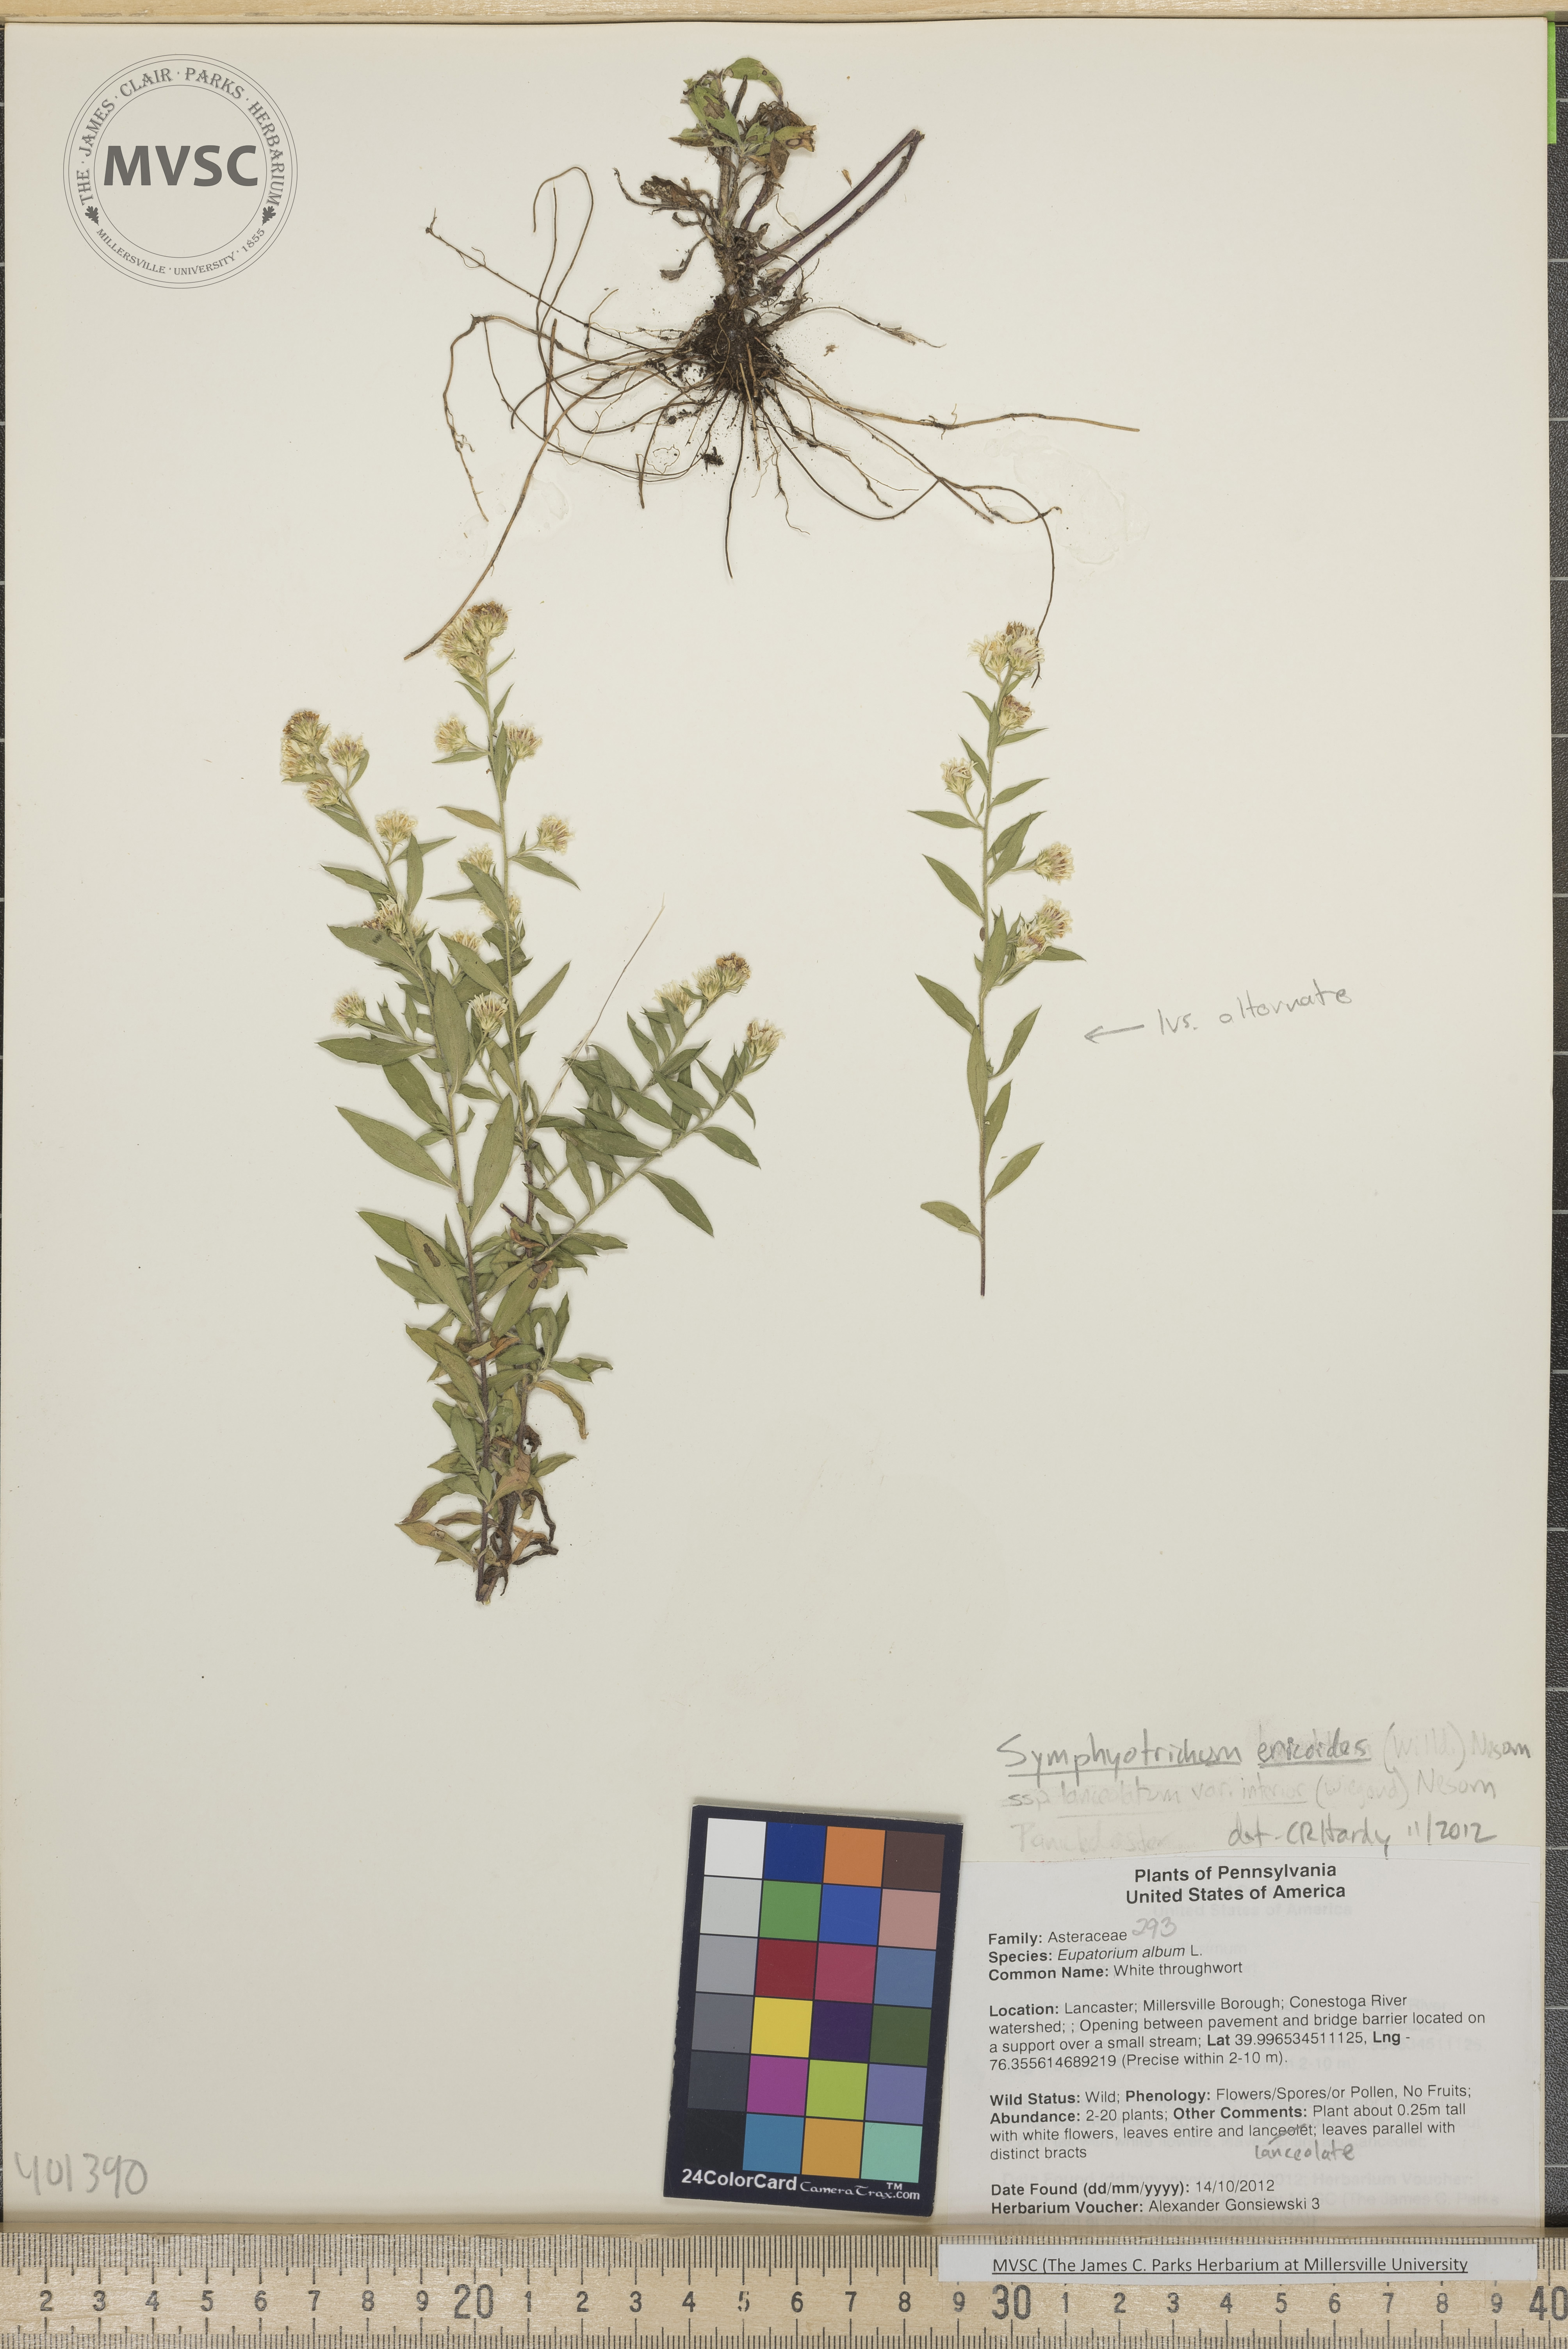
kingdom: Plantae
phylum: Tracheophyta
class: Magnoliopsida
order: Asterales
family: Asteraceae
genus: Symphyotrichum
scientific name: Symphyotrichum pilosum
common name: Heath aster
